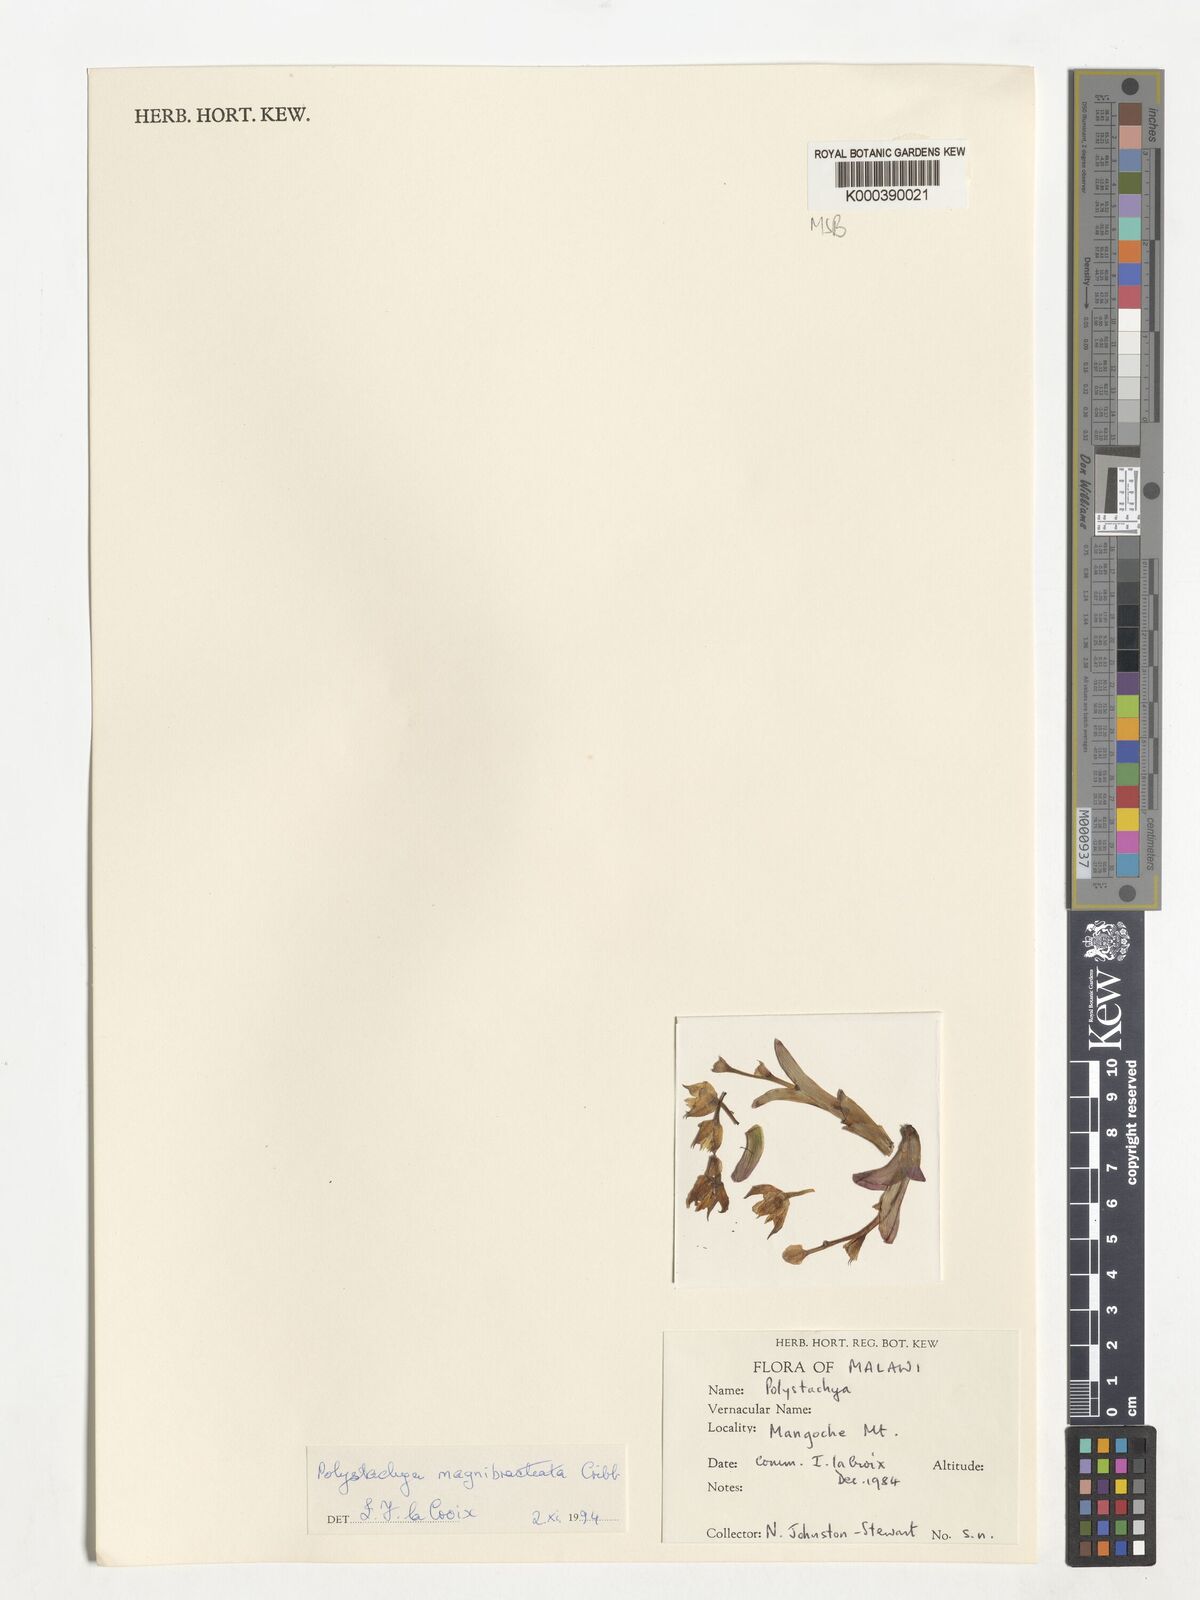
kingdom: Plantae
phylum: Tracheophyta
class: Liliopsida
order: Asparagales
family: Orchidaceae
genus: Polystachya
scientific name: Polystachya magnibracteata
